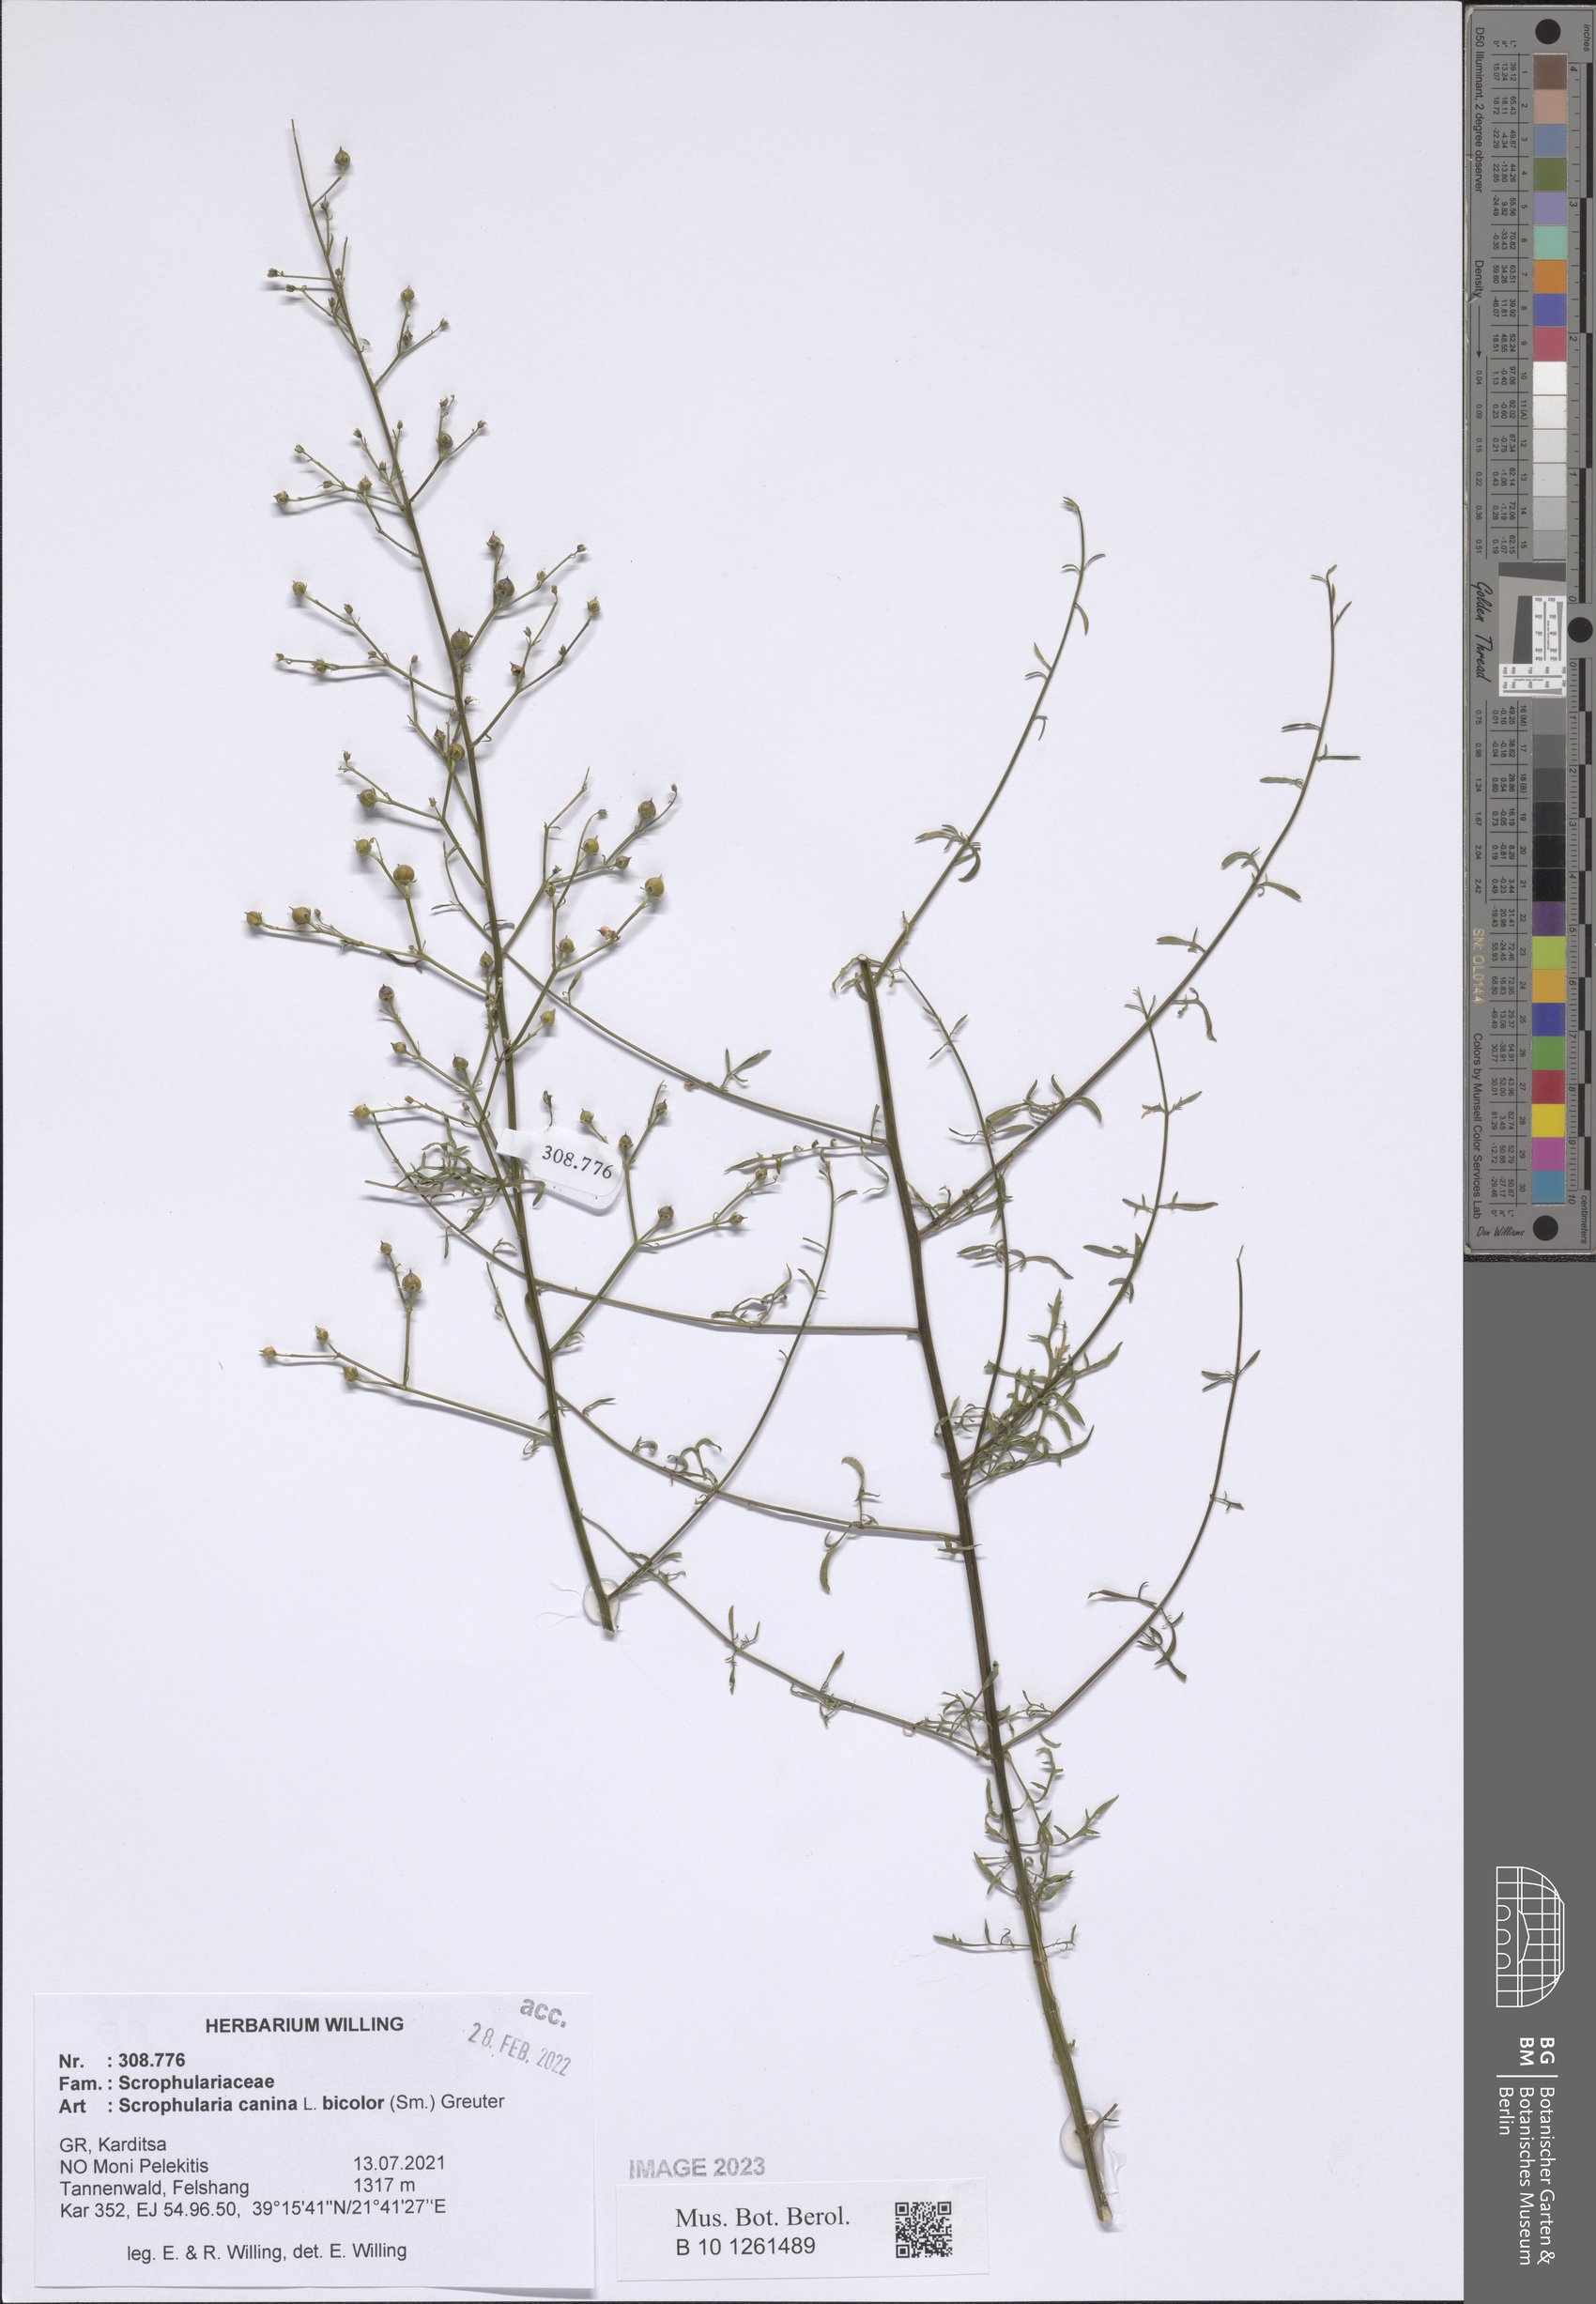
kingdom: Plantae
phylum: Tracheophyta
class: Magnoliopsida
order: Lamiales
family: Scrophulariaceae
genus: Scrophularia
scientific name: Scrophularia canina
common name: French figwort
